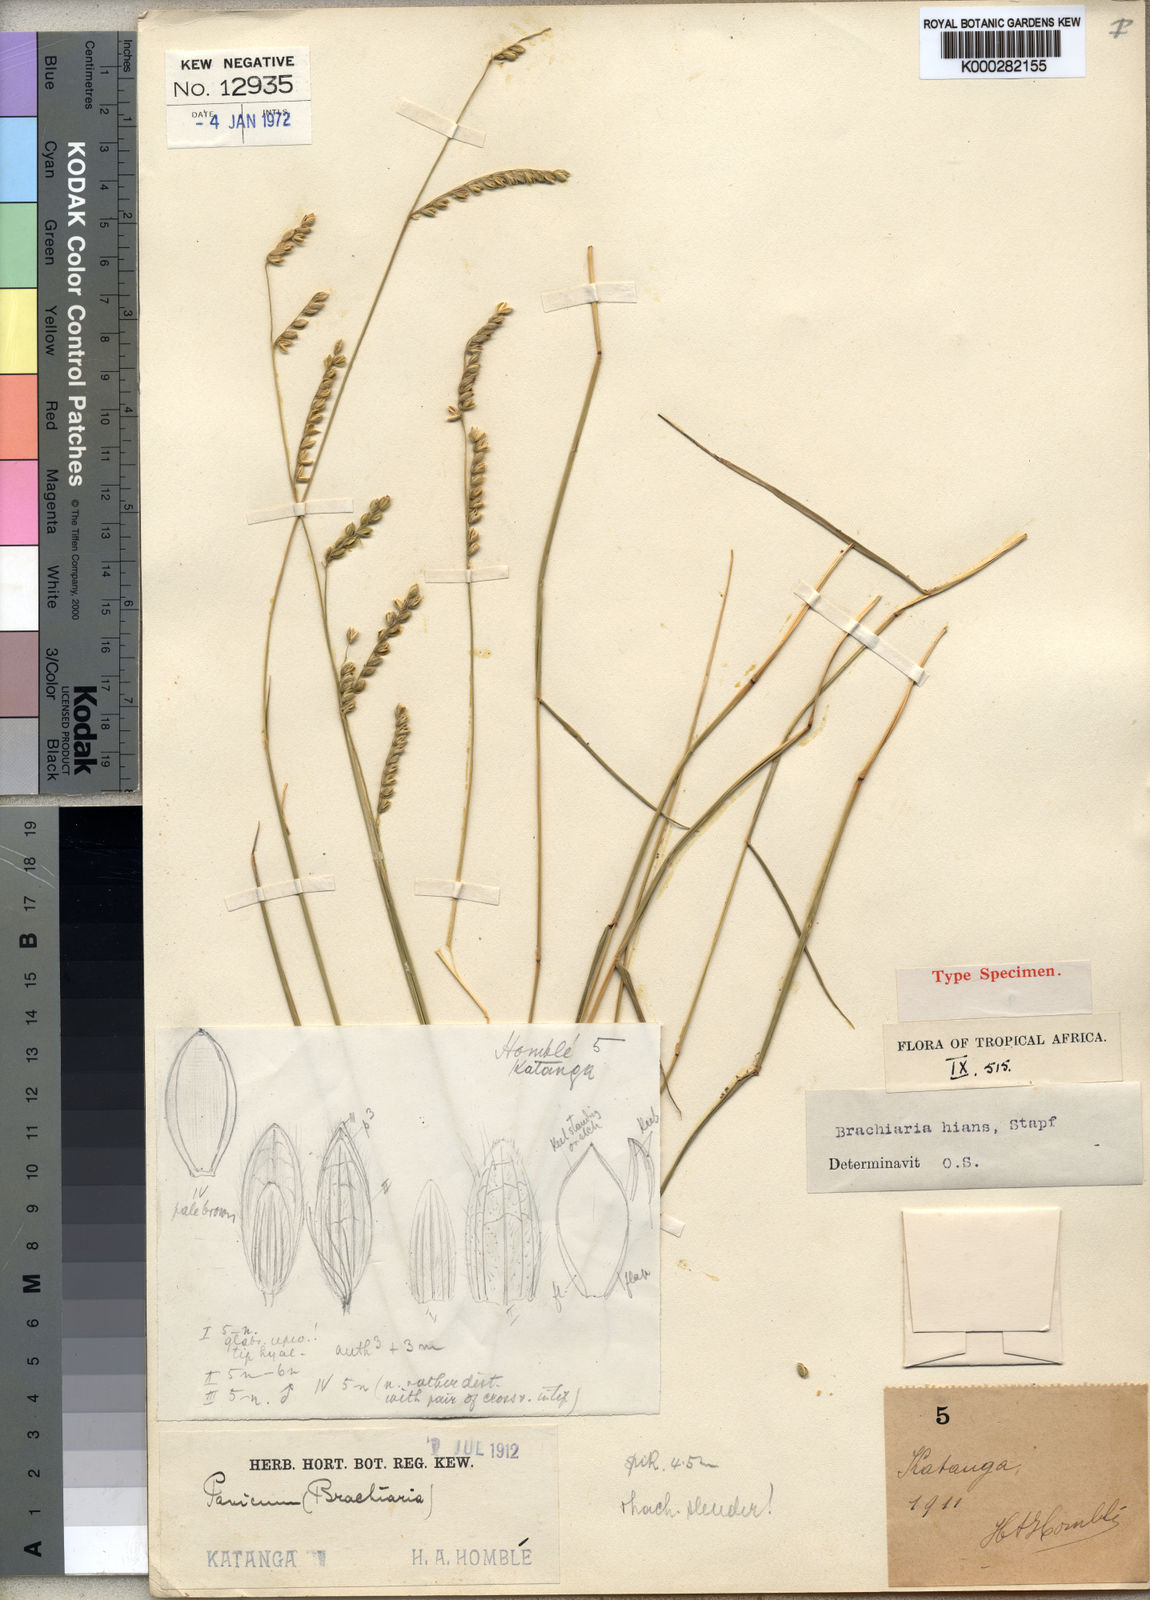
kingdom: Plantae
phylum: Tracheophyta
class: Liliopsida
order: Poales
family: Poaceae
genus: Urochloa
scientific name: Urochloa bovonei
